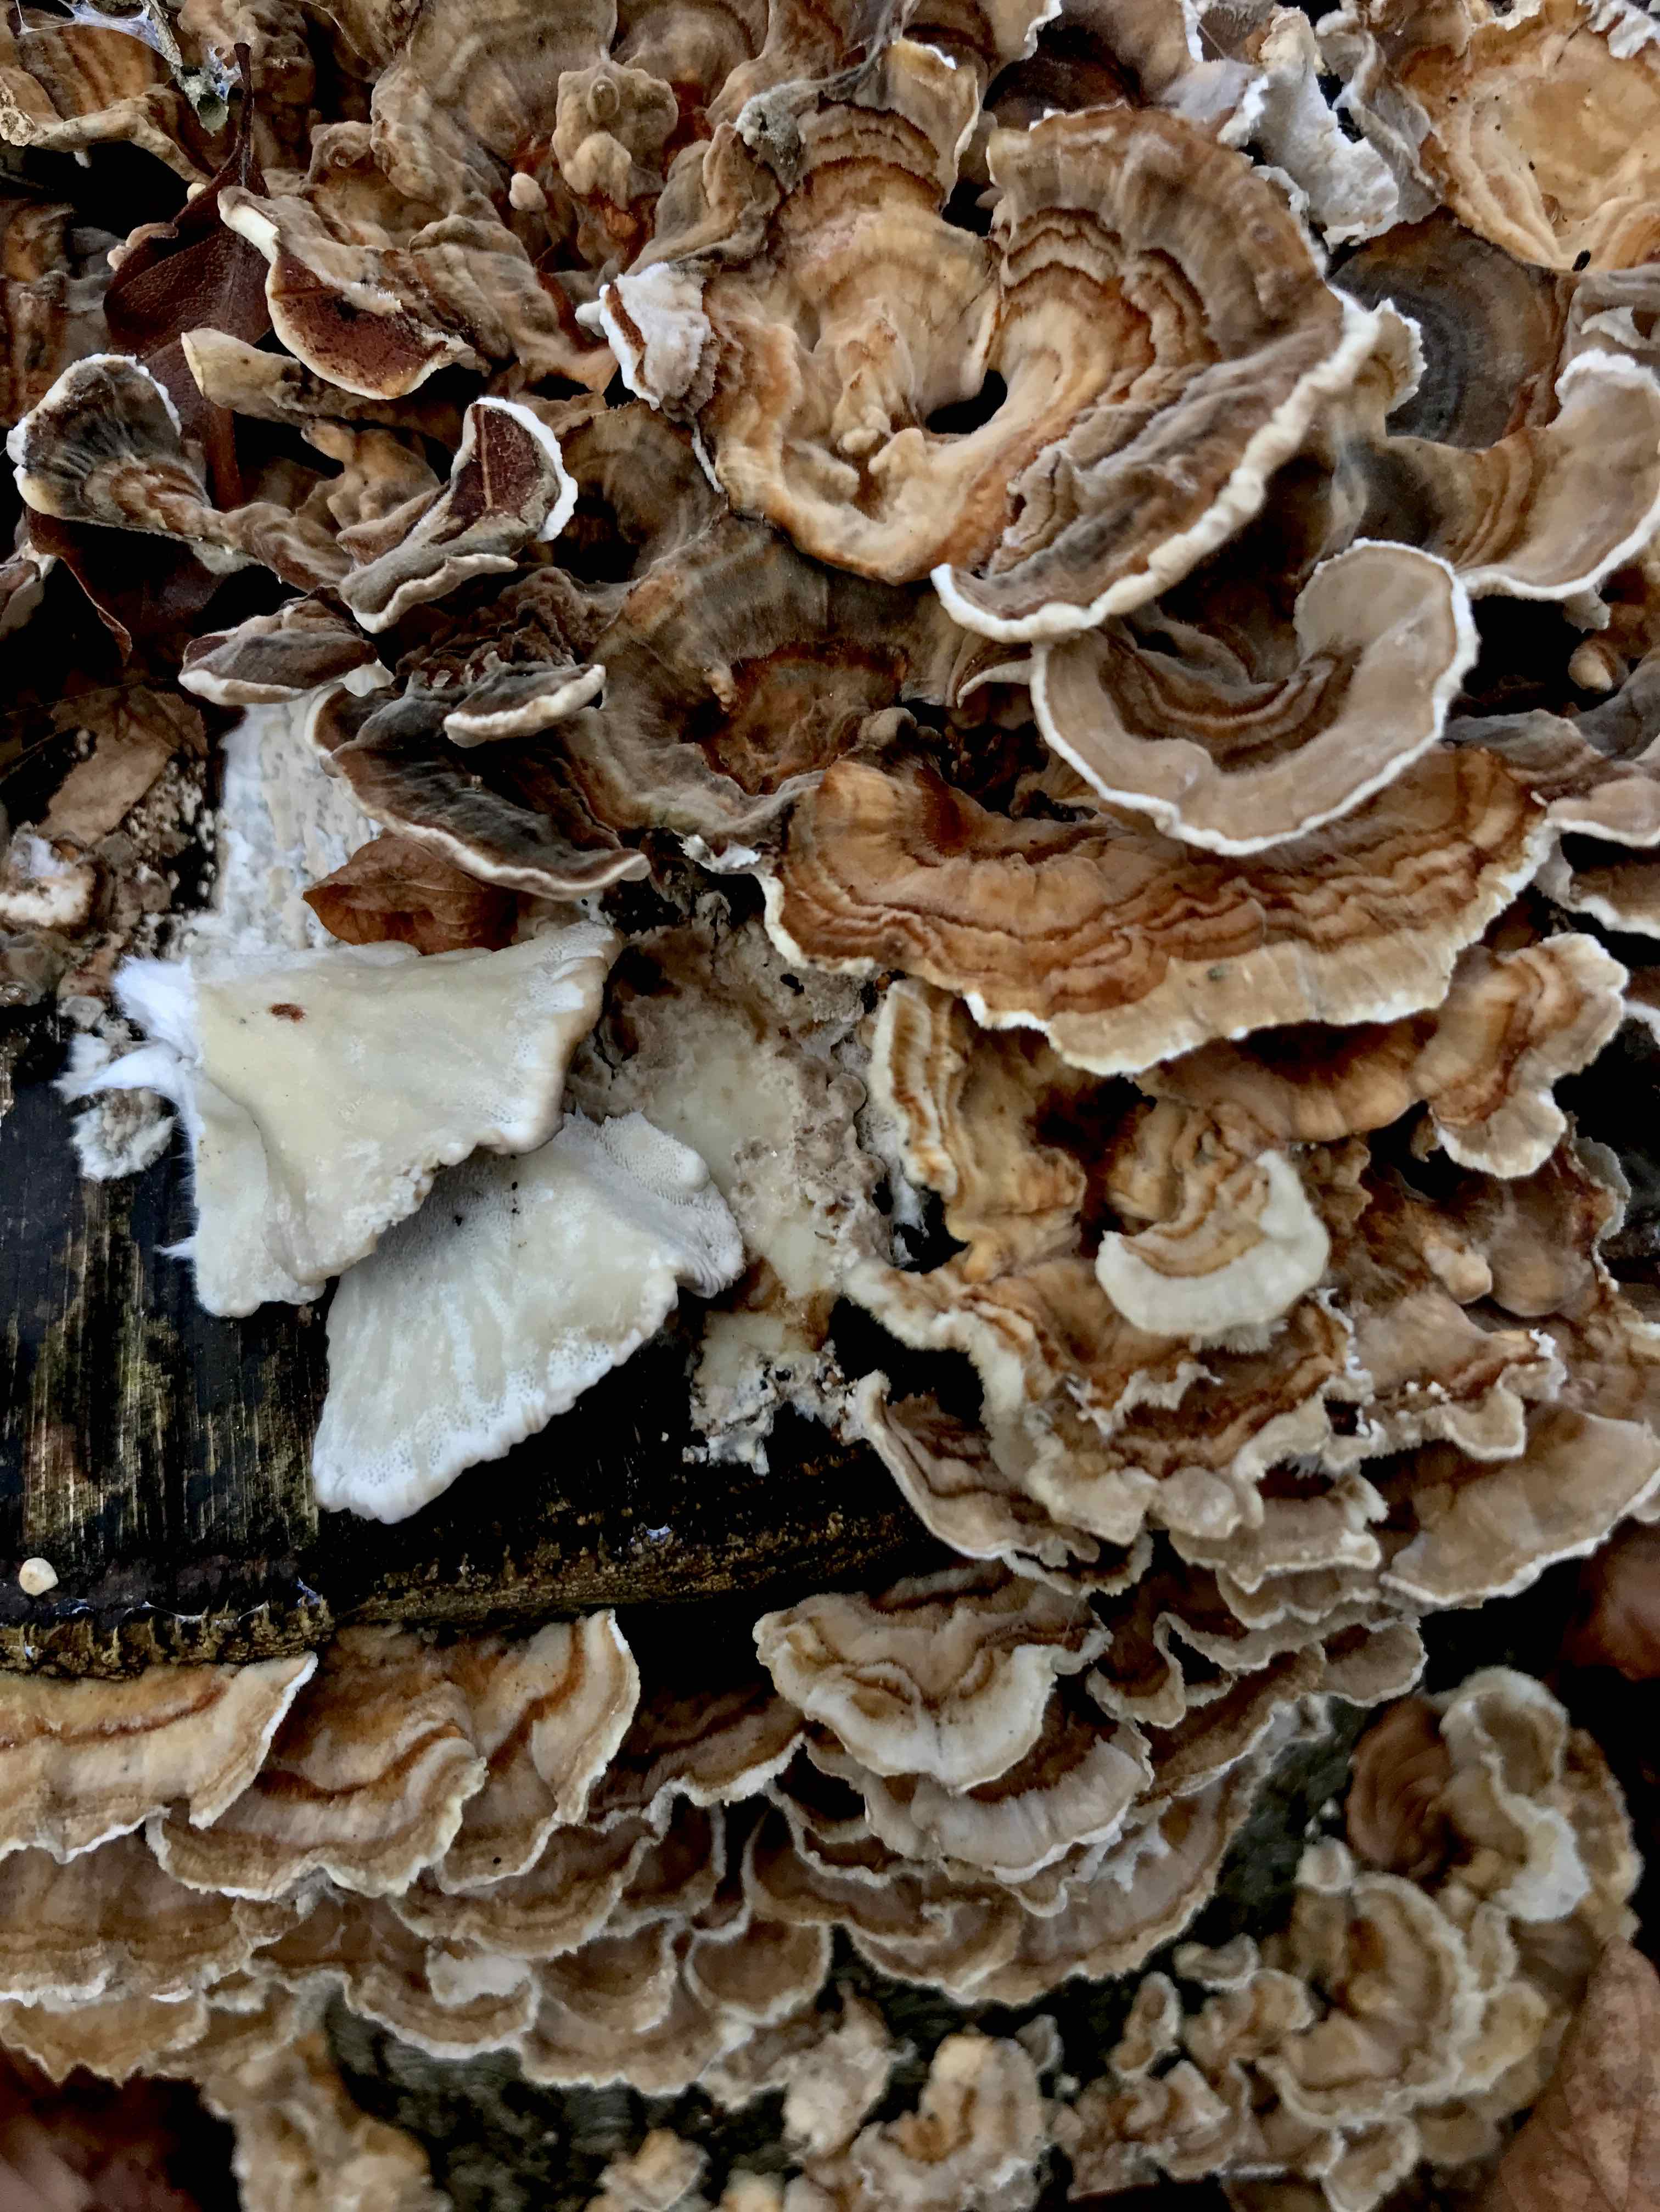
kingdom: Fungi
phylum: Basidiomycota
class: Agaricomycetes
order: Polyporales
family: Polyporaceae
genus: Trametes
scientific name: Trametes versicolor
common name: broget læderporesvamp
